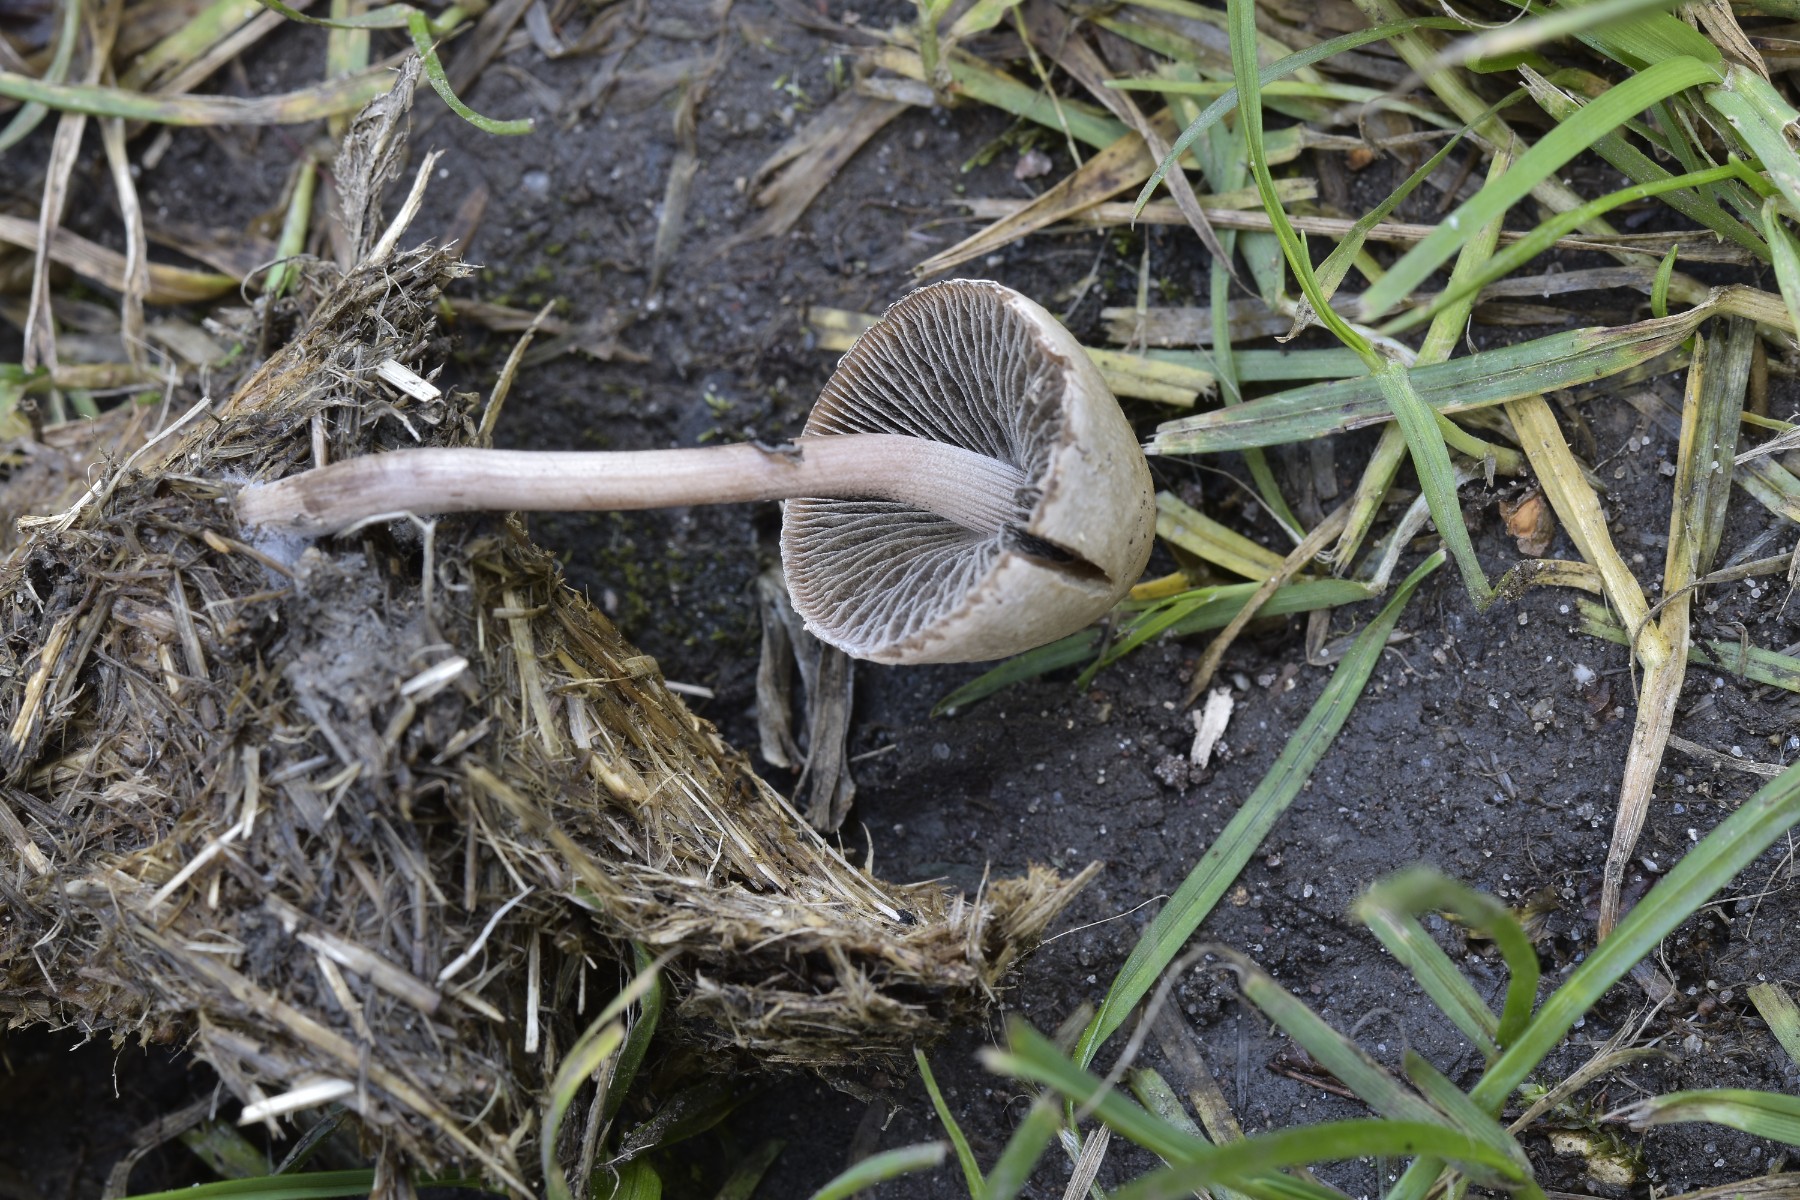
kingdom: Fungi
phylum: Basidiomycota
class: Agaricomycetes
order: Agaricales
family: Bolbitiaceae
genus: Panaeolus
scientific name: Panaeolus papilionaceus
